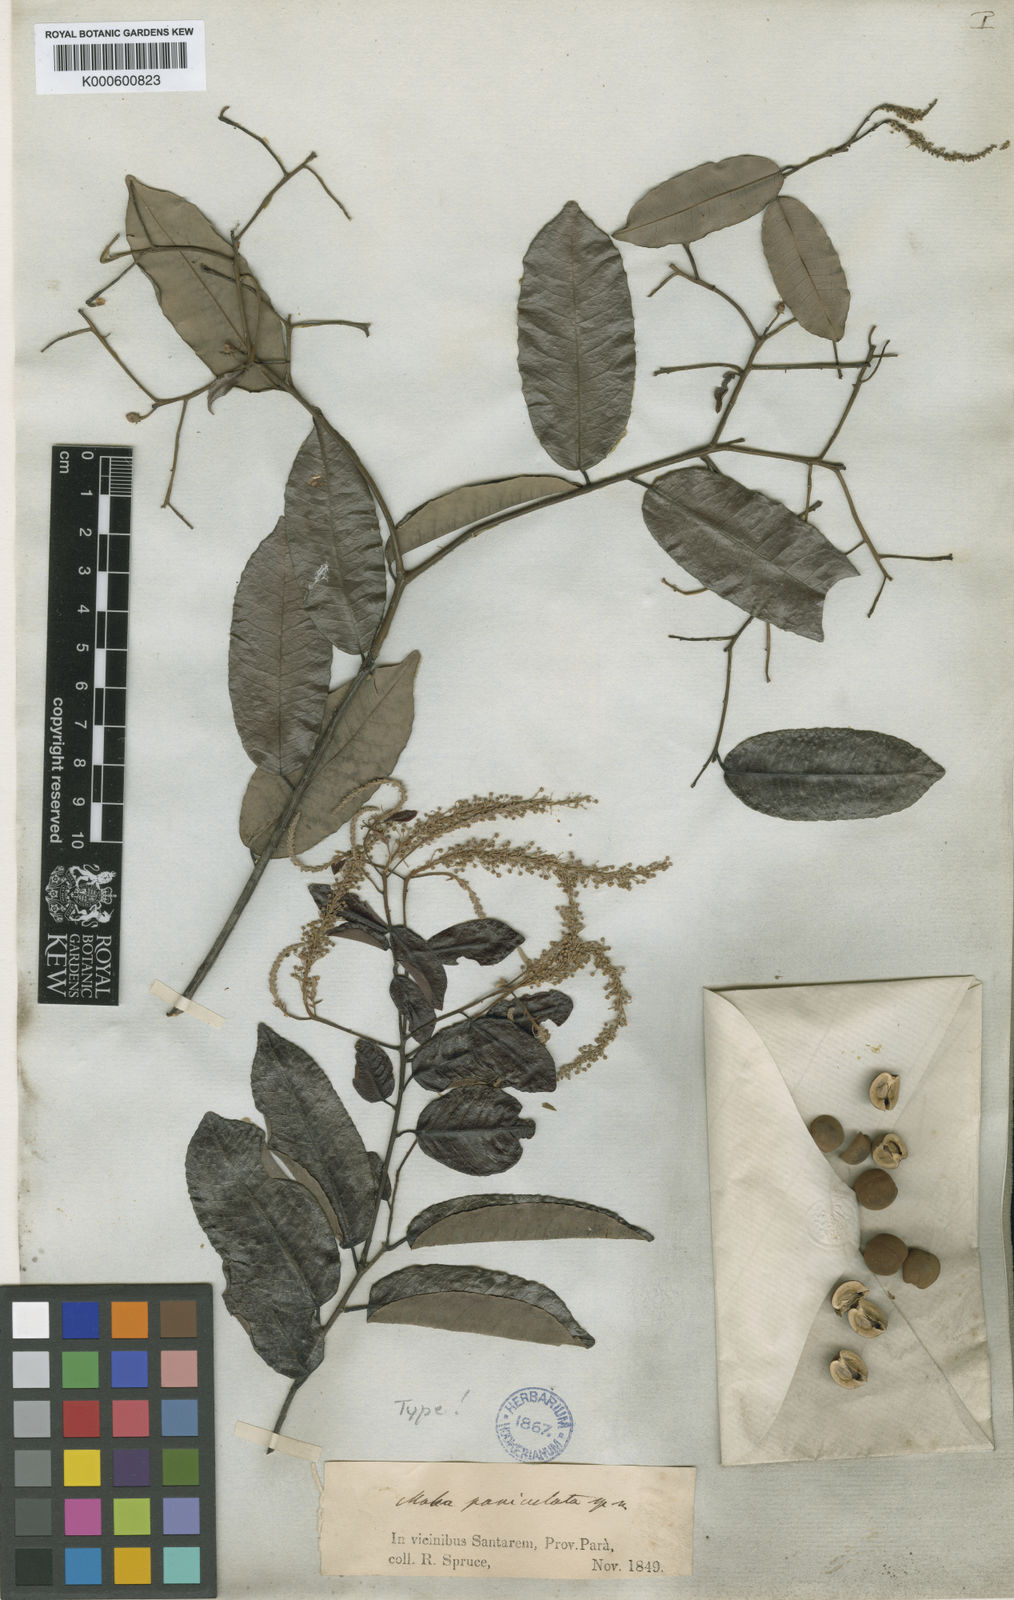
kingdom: Plantae
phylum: Tracheophyta
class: Magnoliopsida
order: Malpighiales
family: Euphorbiaceae
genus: Mabea
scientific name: Mabea paniculata
